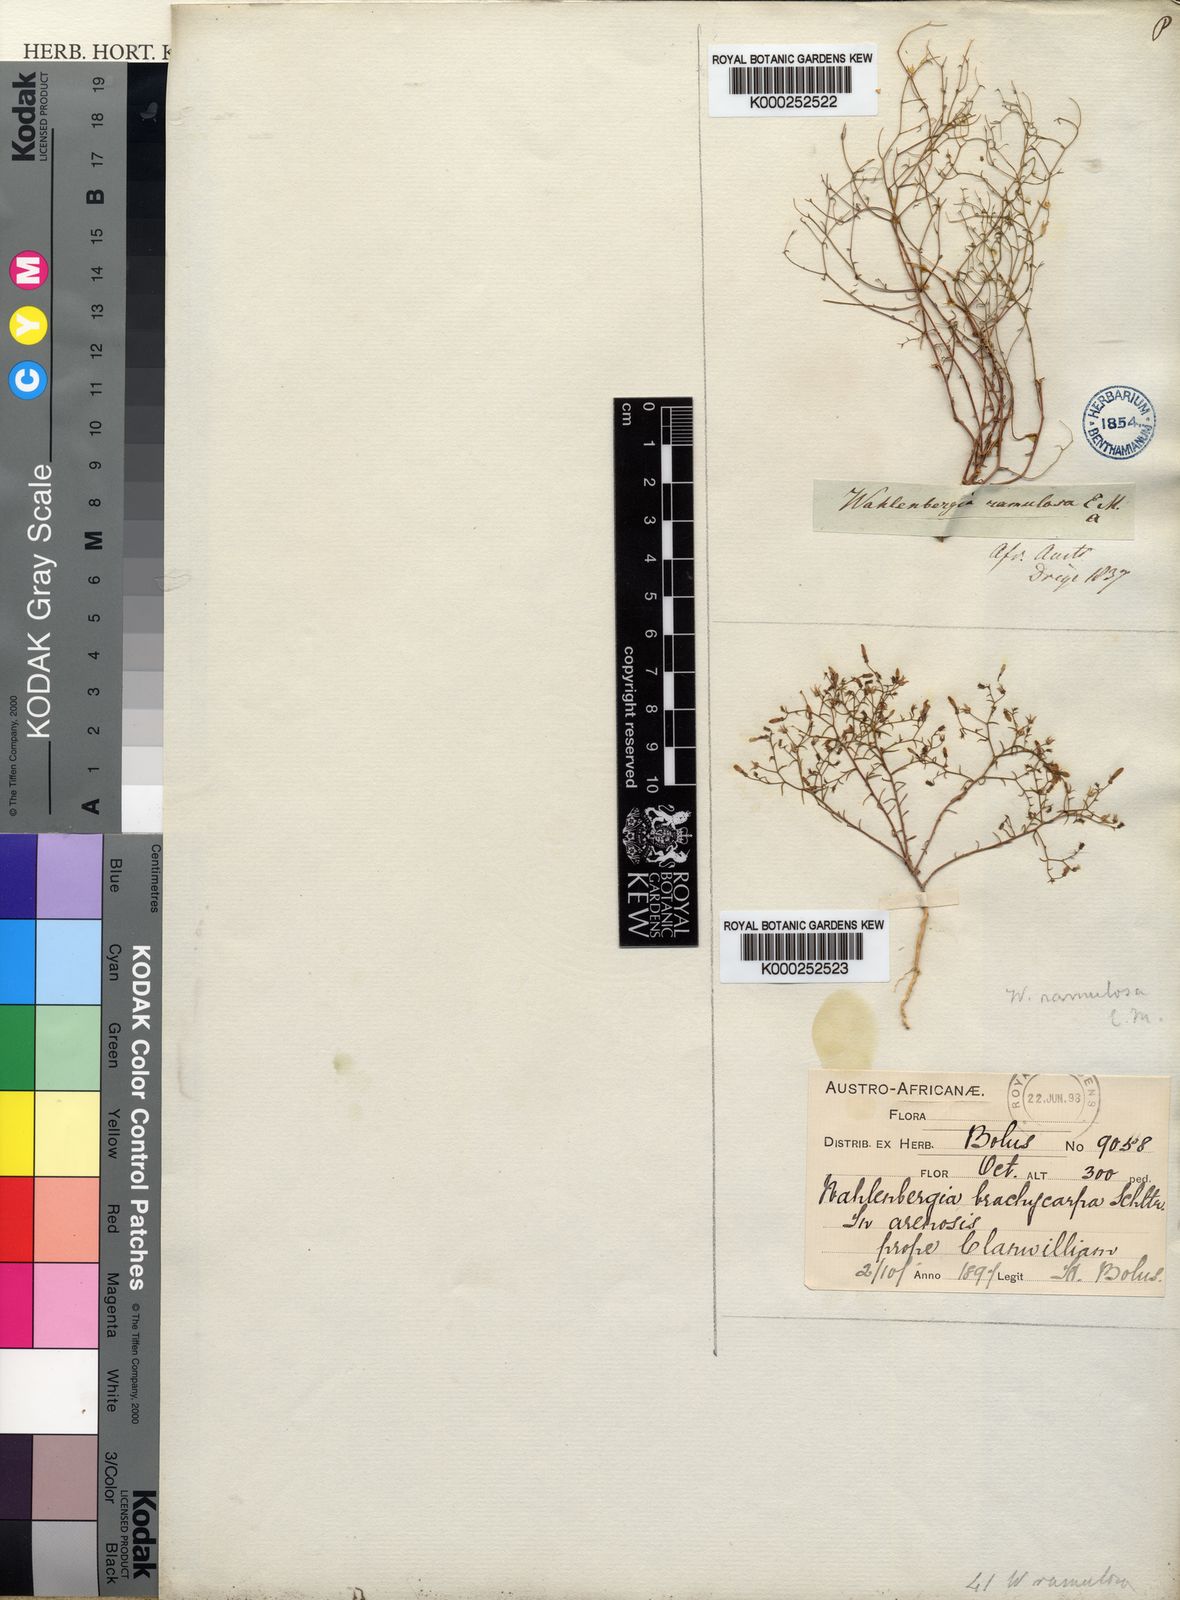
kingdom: Plantae
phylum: Tracheophyta
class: Magnoliopsida
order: Asterales
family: Campanulaceae
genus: Wahlenbergia
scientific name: Wahlenbergia
